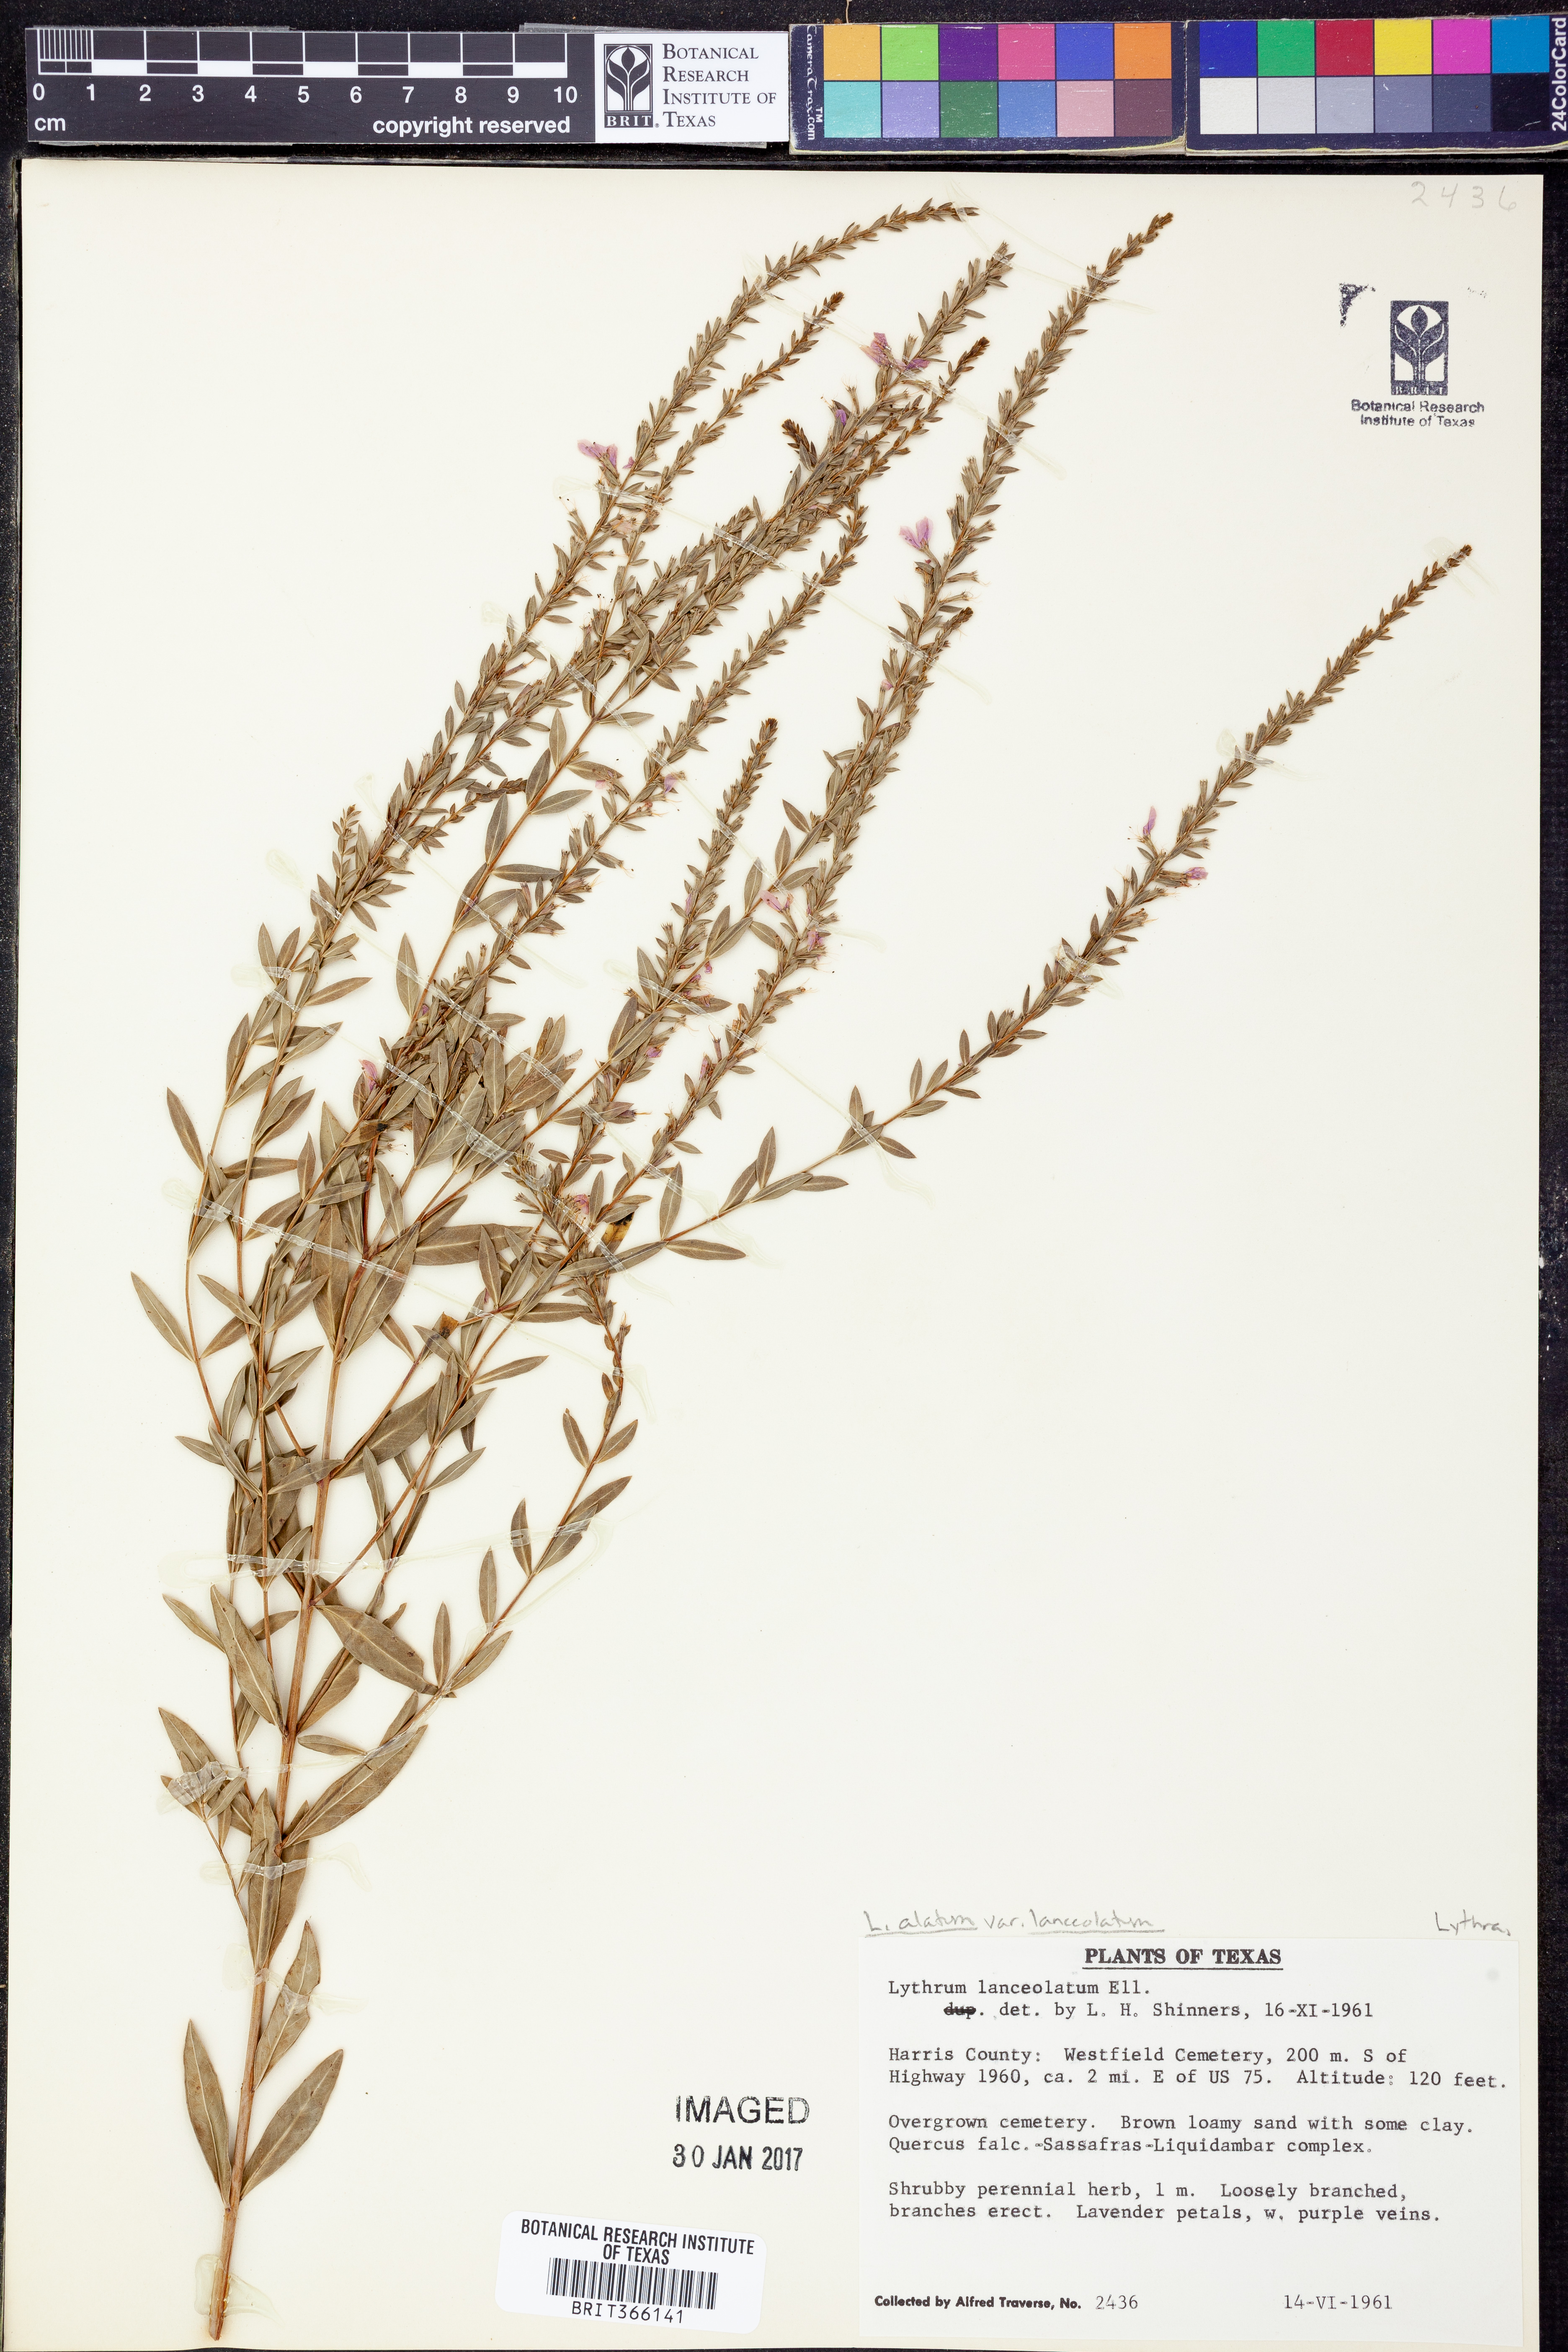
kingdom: Plantae
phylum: Tracheophyta
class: Magnoliopsida
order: Myrtales
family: Lythraceae
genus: Lythrum
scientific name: Lythrum alatum
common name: Winged loosestrife
